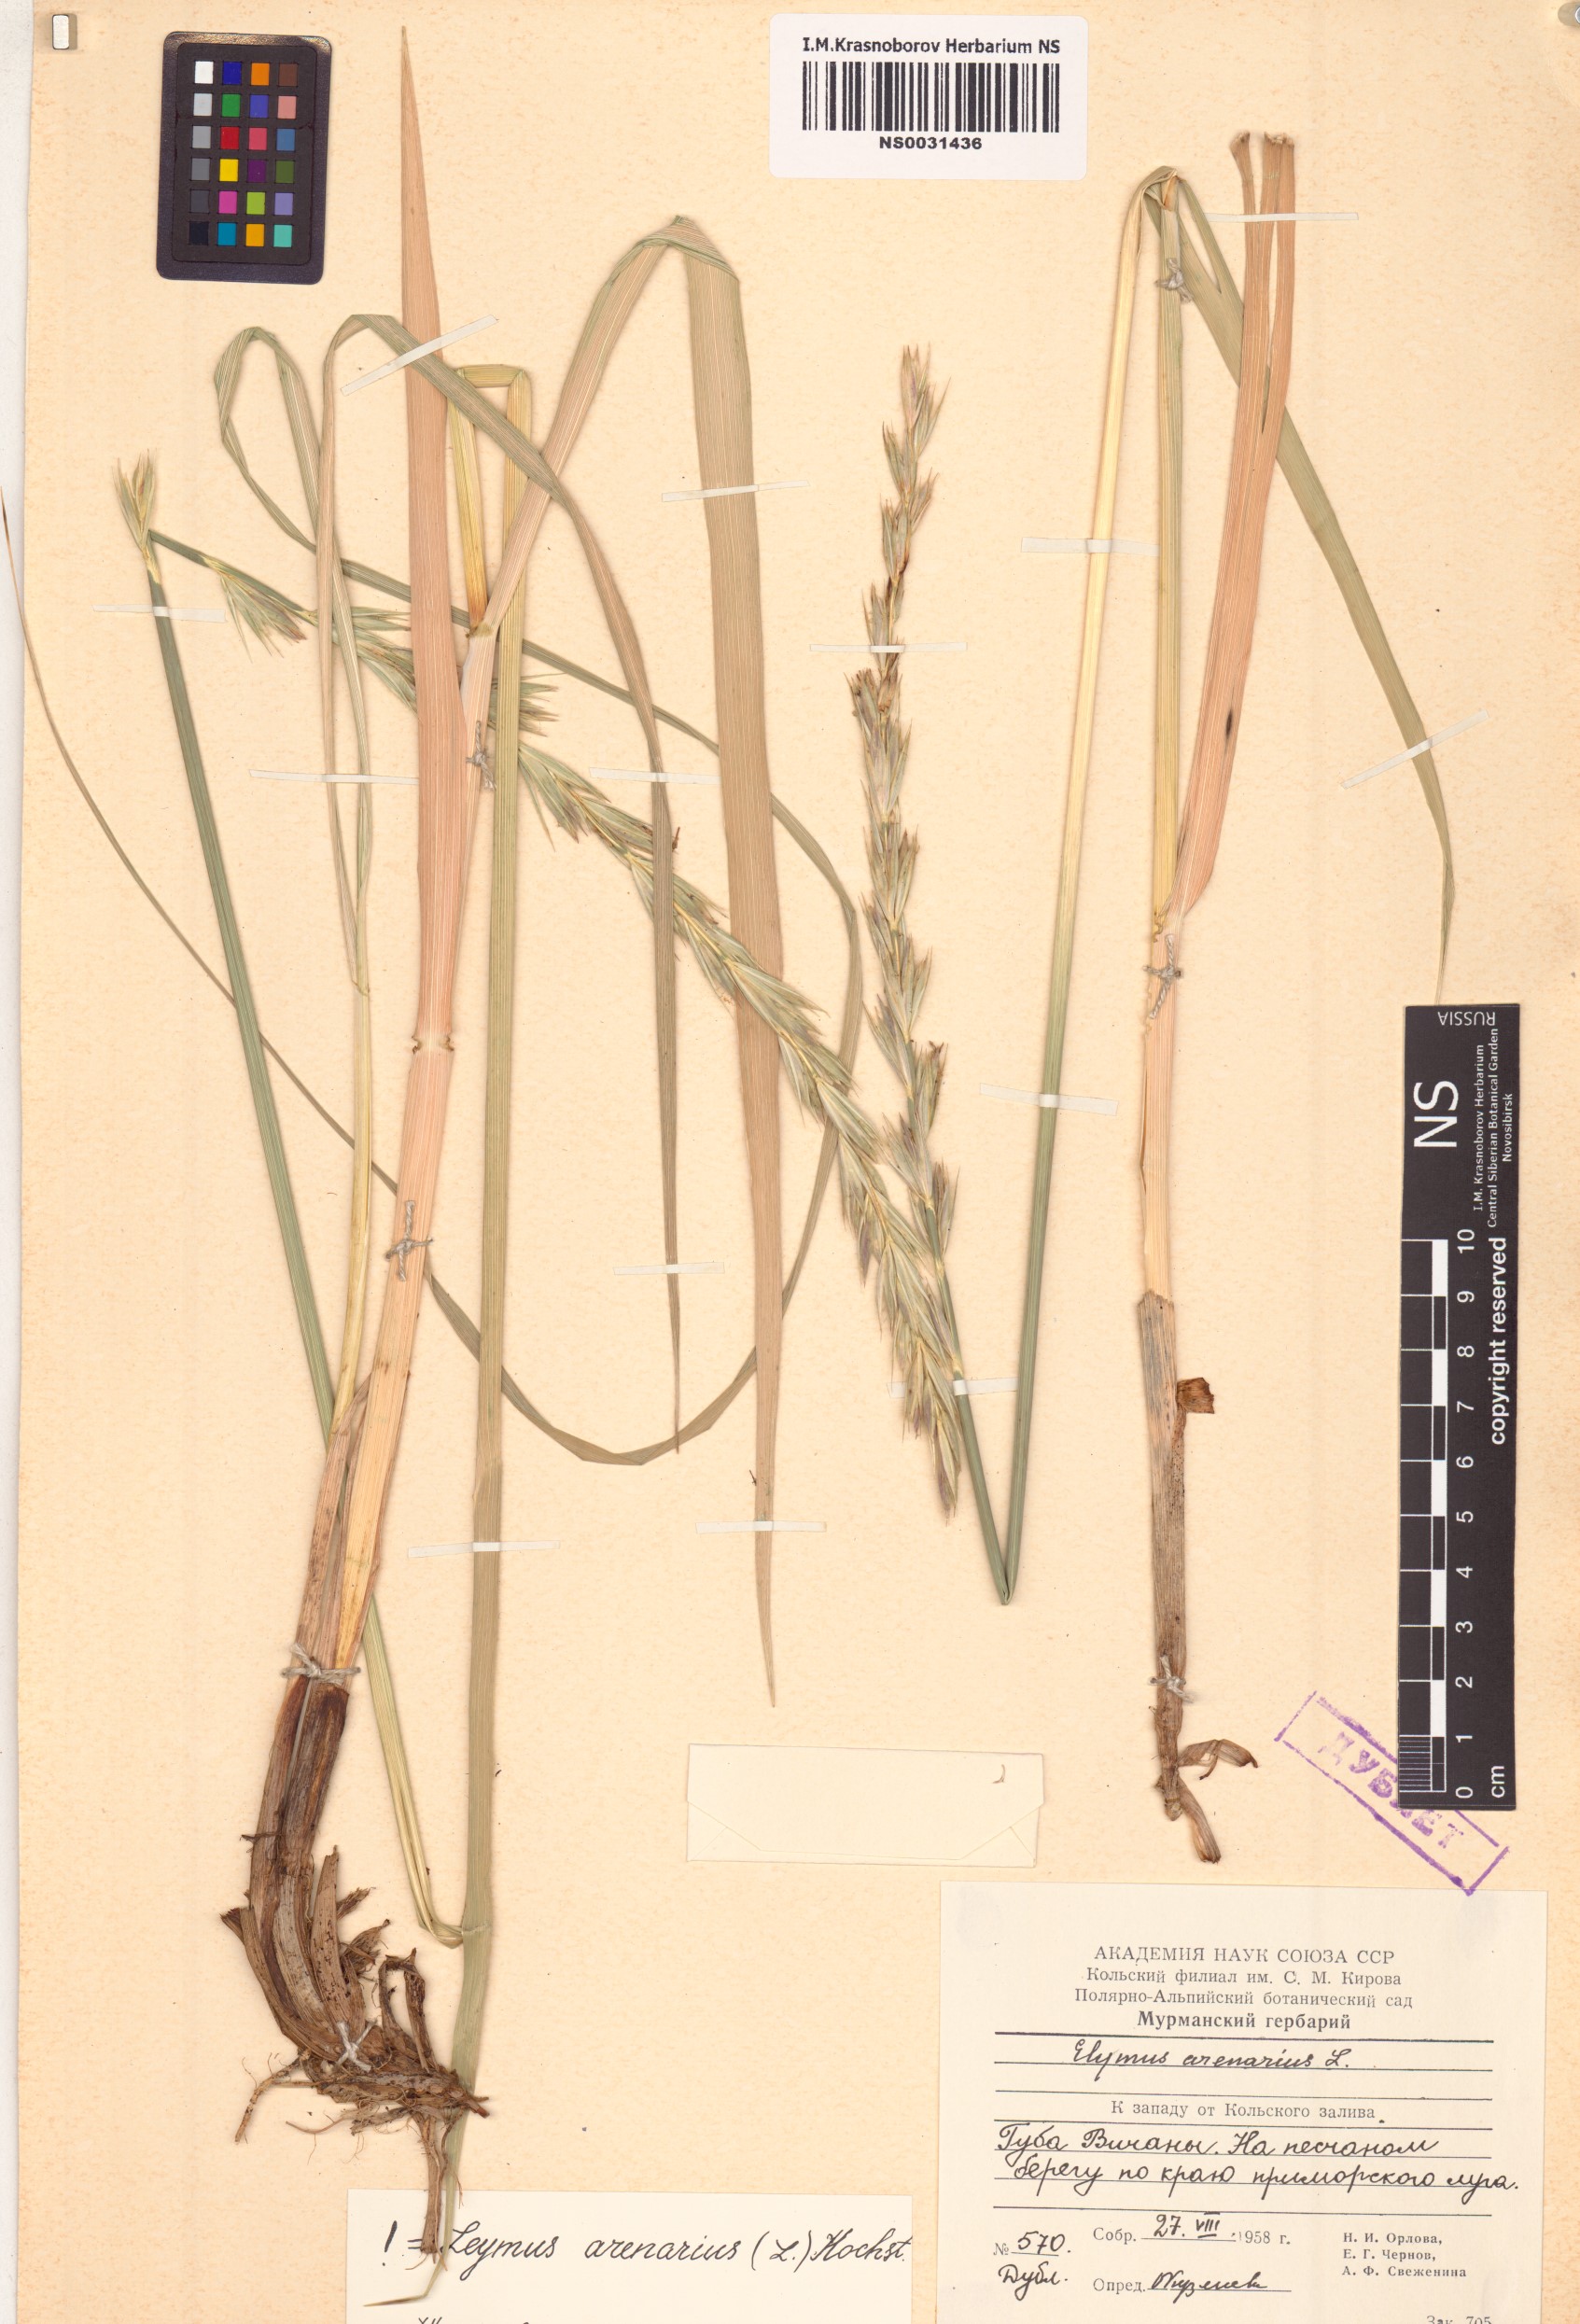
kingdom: Plantae
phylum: Tracheophyta
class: Liliopsida
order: Poales
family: Poaceae
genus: Leymus
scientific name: Leymus arenarius
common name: Lyme-grass
